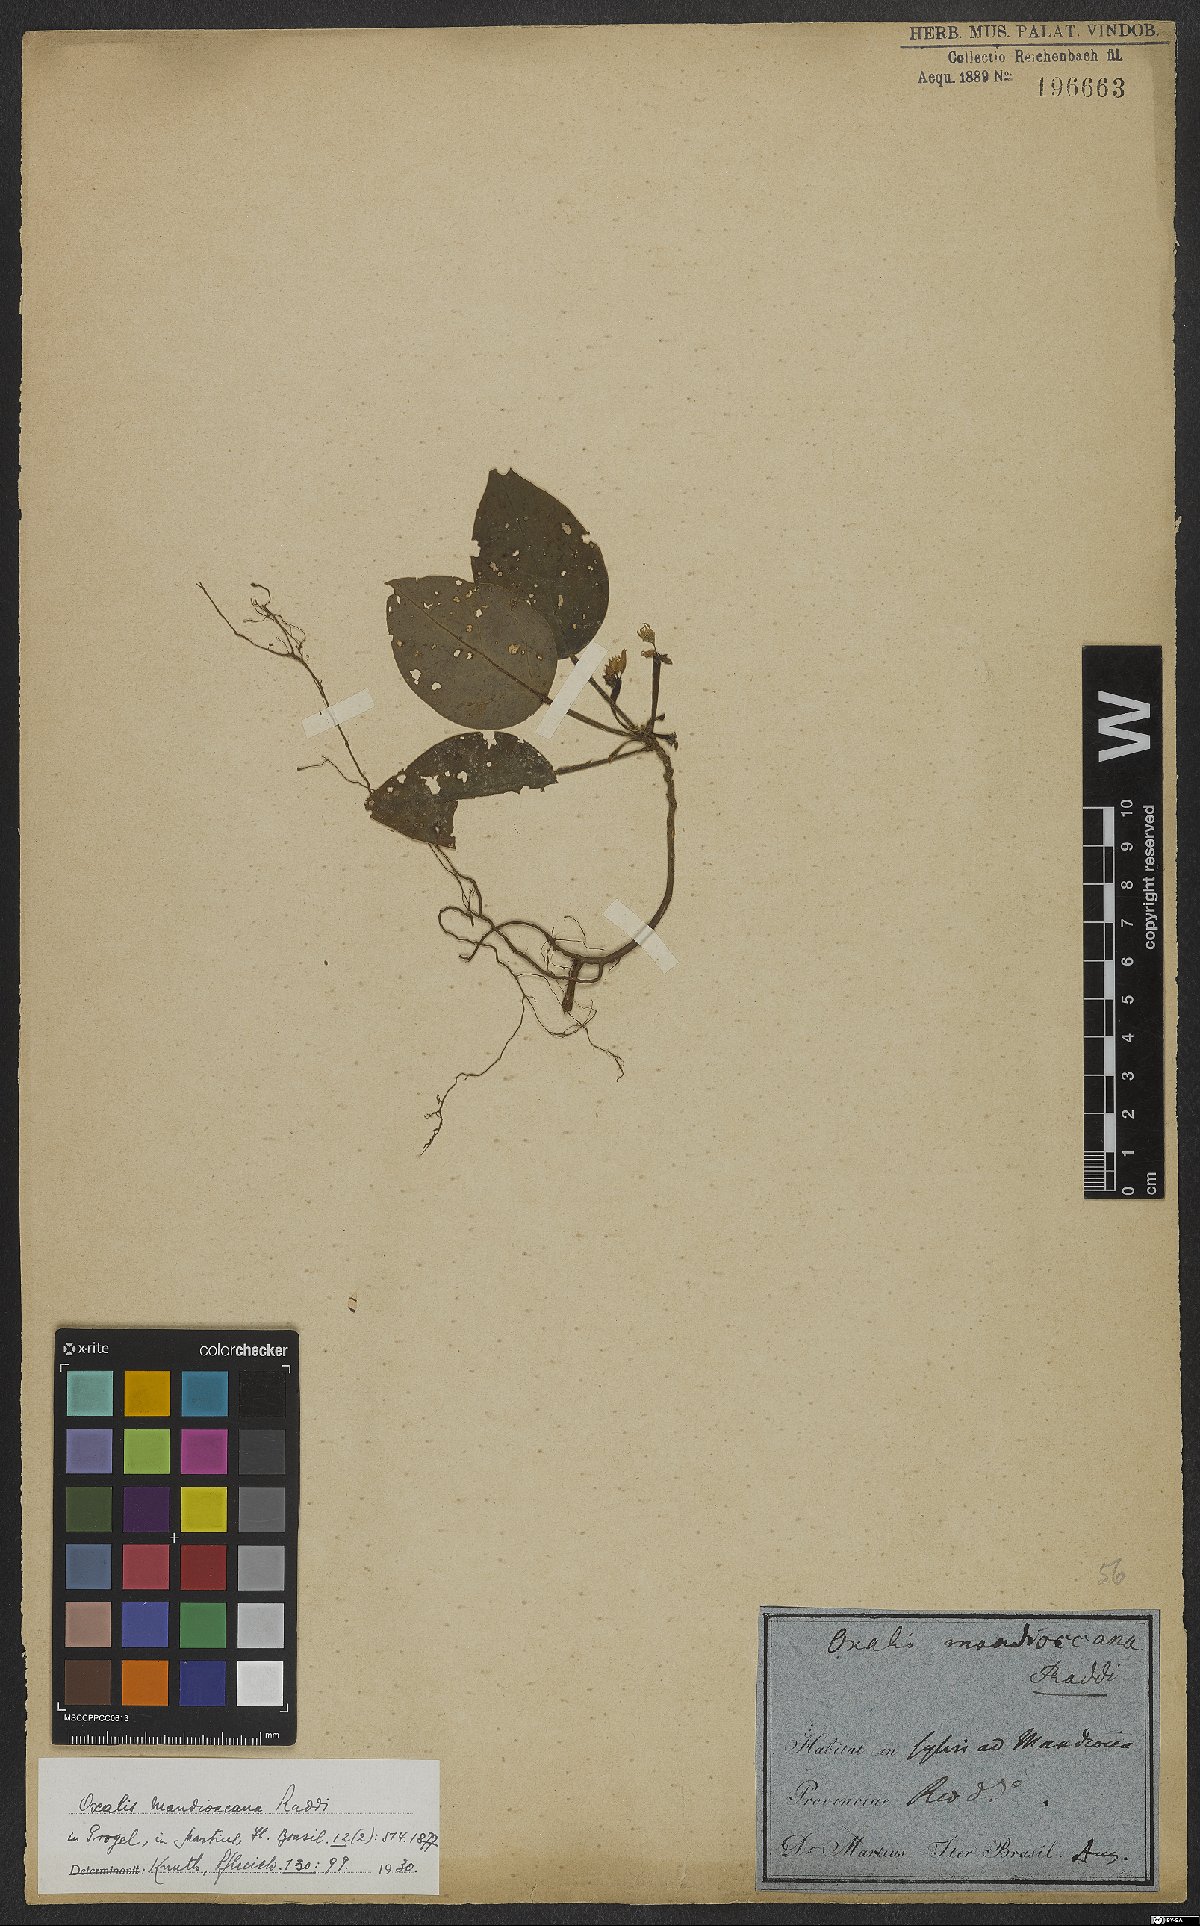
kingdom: Plantae
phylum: Tracheophyta
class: Magnoliopsida
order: Oxalidales
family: Oxalidaceae
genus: Oxalis
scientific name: Oxalis mandioccana
